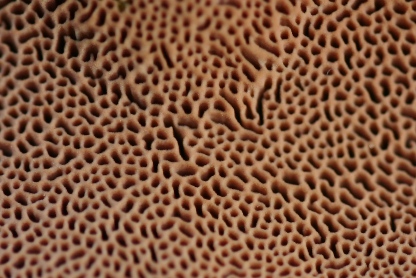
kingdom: Fungi
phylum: Basidiomycota
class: Agaricomycetes
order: Polyporales
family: Phanerochaetaceae
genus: Hapalopilus
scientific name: Hapalopilus rutilans
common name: rødlig okkerporesvamp
